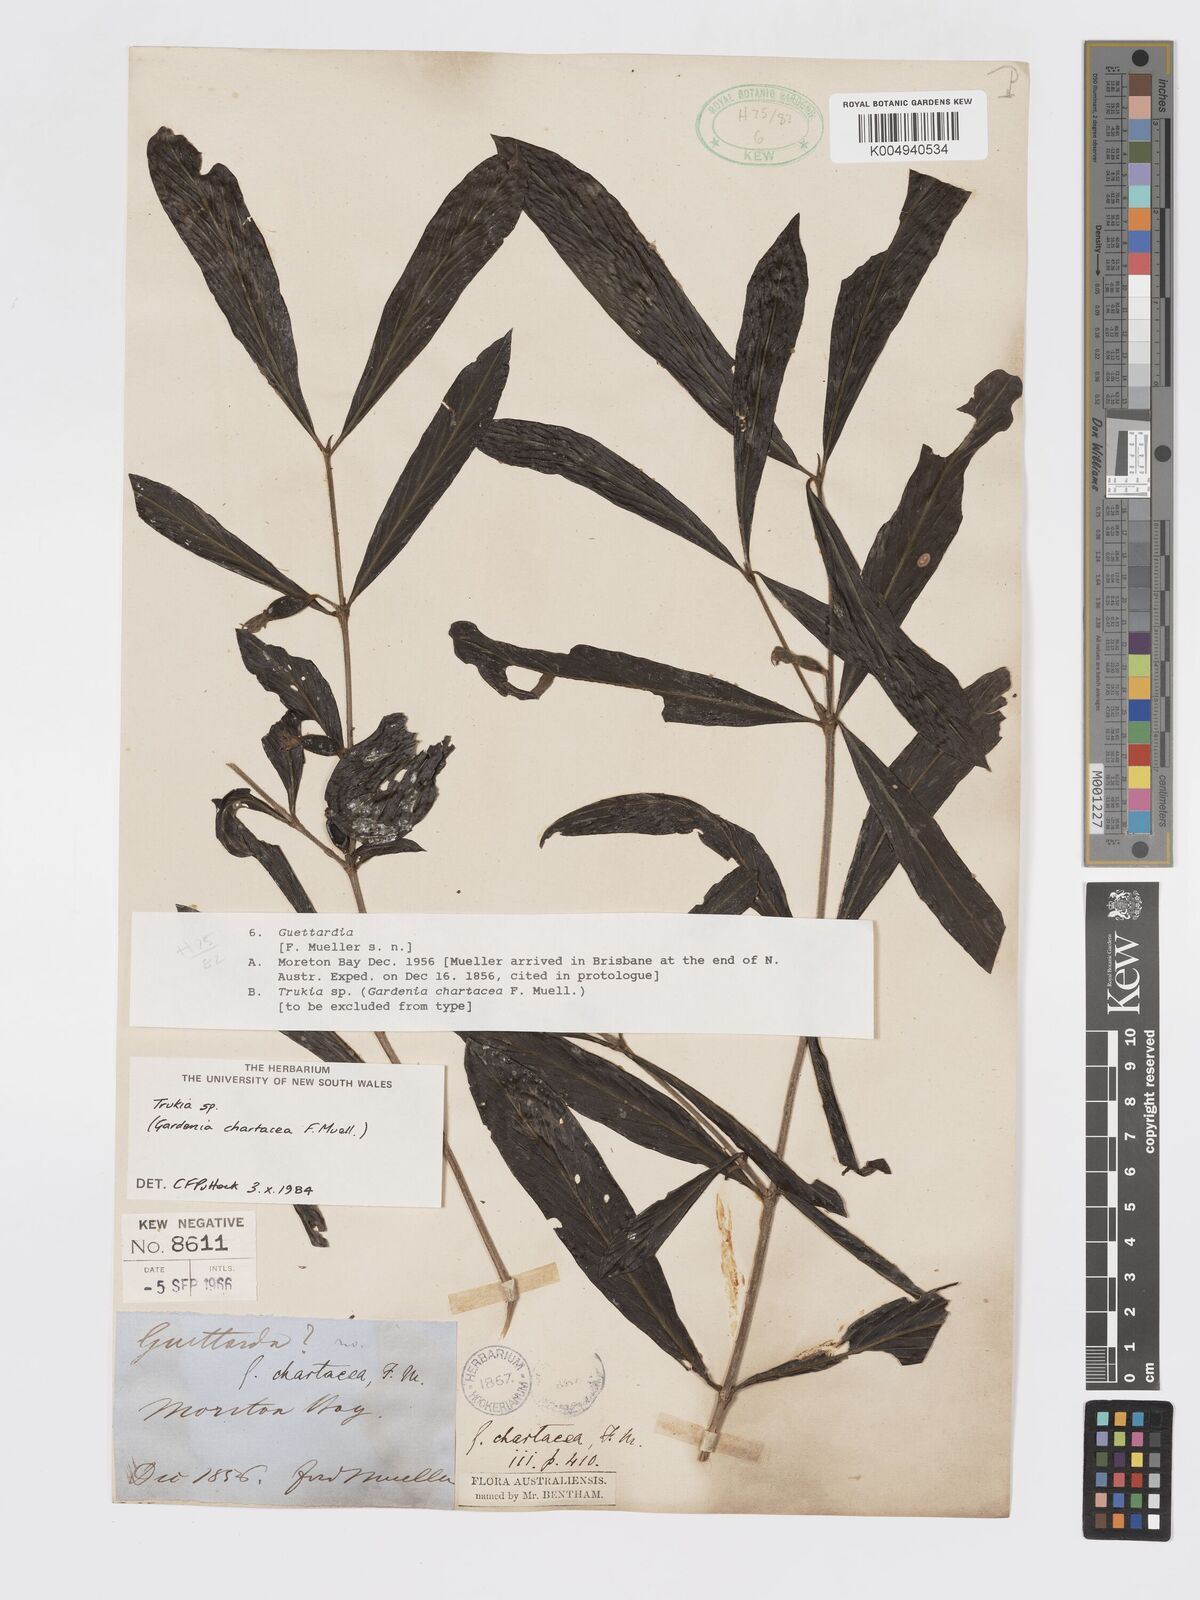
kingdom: Plantae
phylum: Tracheophyta
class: Magnoliopsida
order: Gentianales
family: Rubiaceae
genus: Atractocarpus
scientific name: Atractocarpus chartaceus
